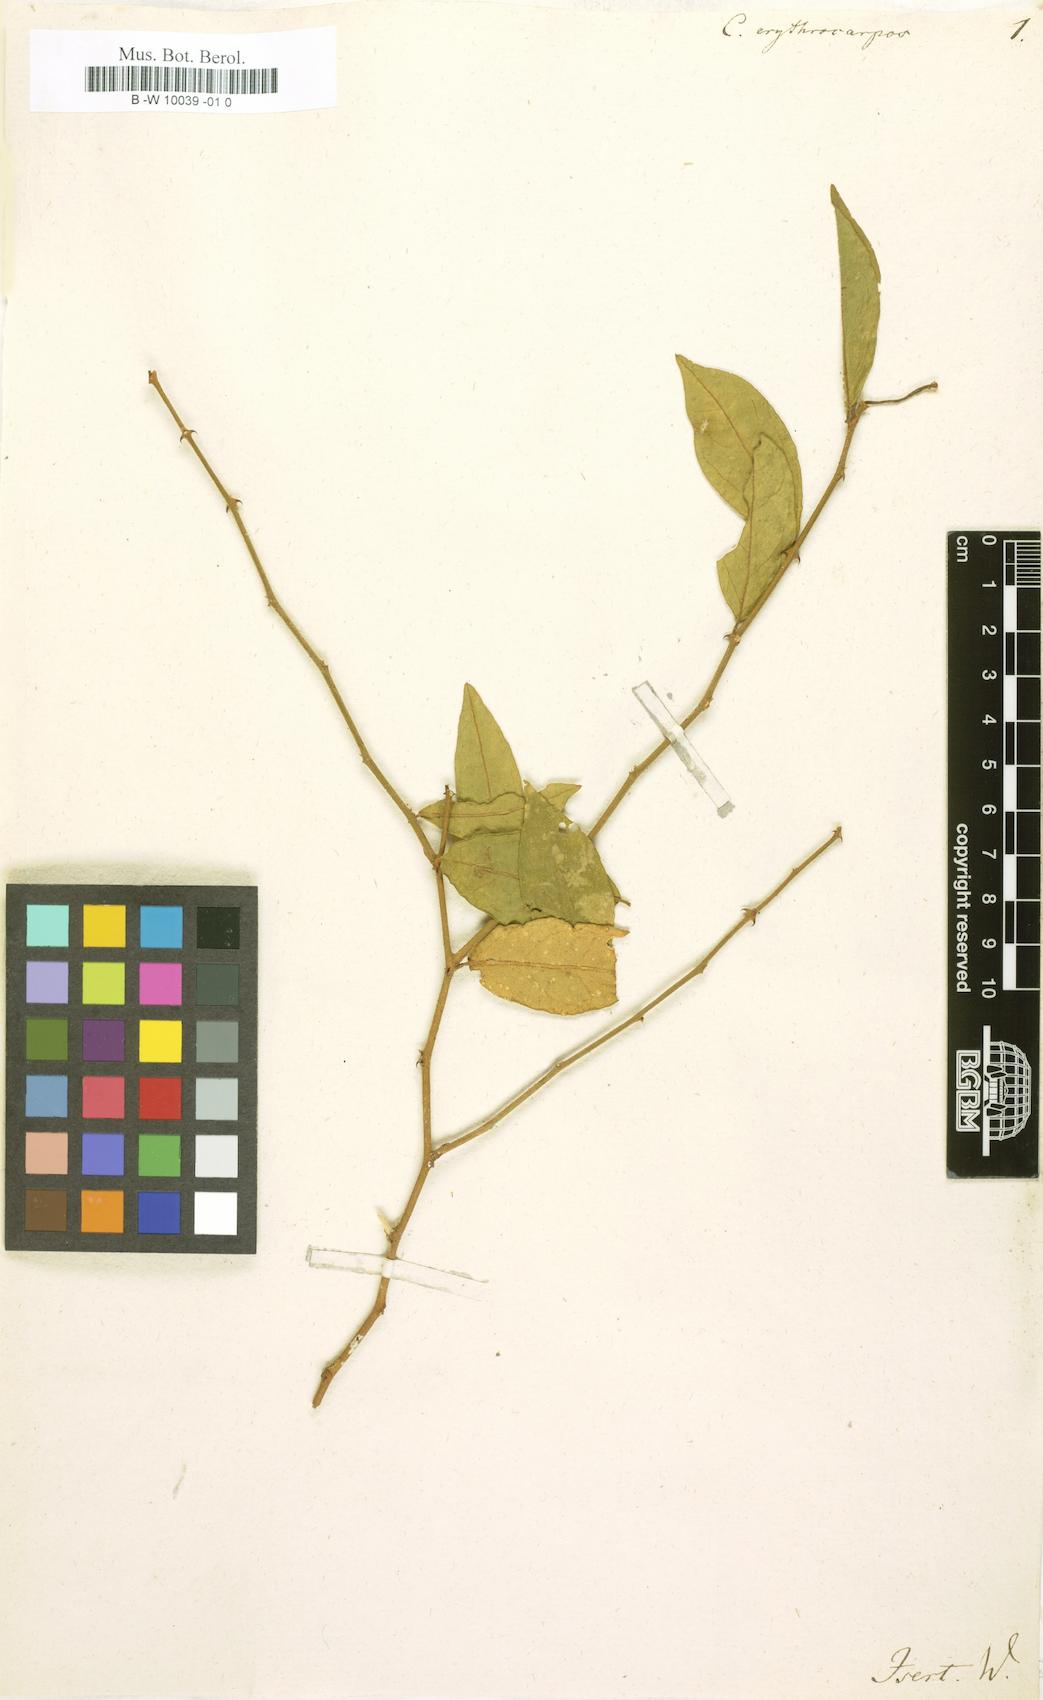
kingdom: Plantae
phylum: Tracheophyta
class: Magnoliopsida
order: Brassicales
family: Capparaceae
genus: Capparis
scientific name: Capparis erythrocarpos
